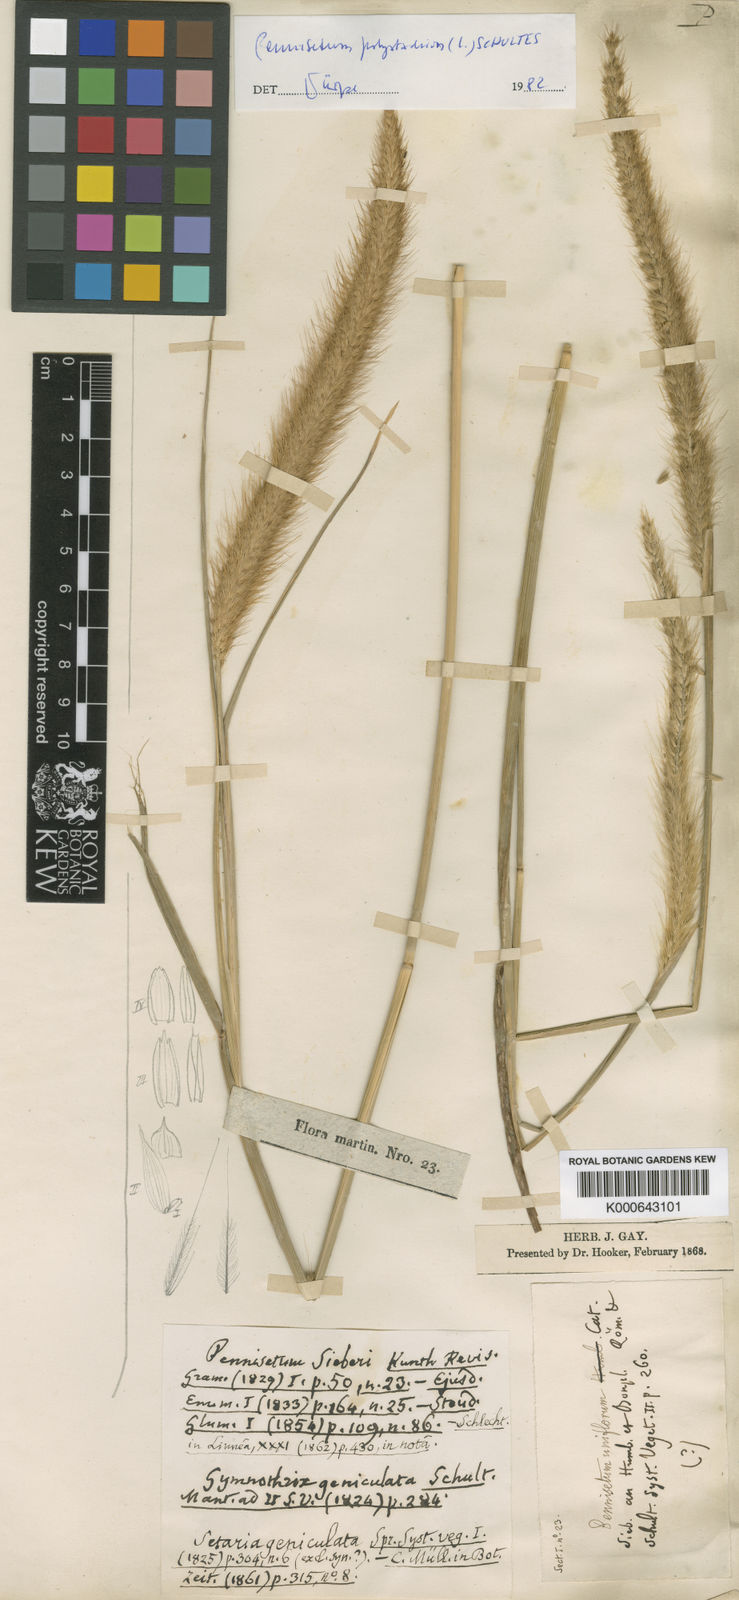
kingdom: Plantae
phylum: Tracheophyta
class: Liliopsida
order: Poales
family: Poaceae
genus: Cenchrus
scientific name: Cenchrus setosus
